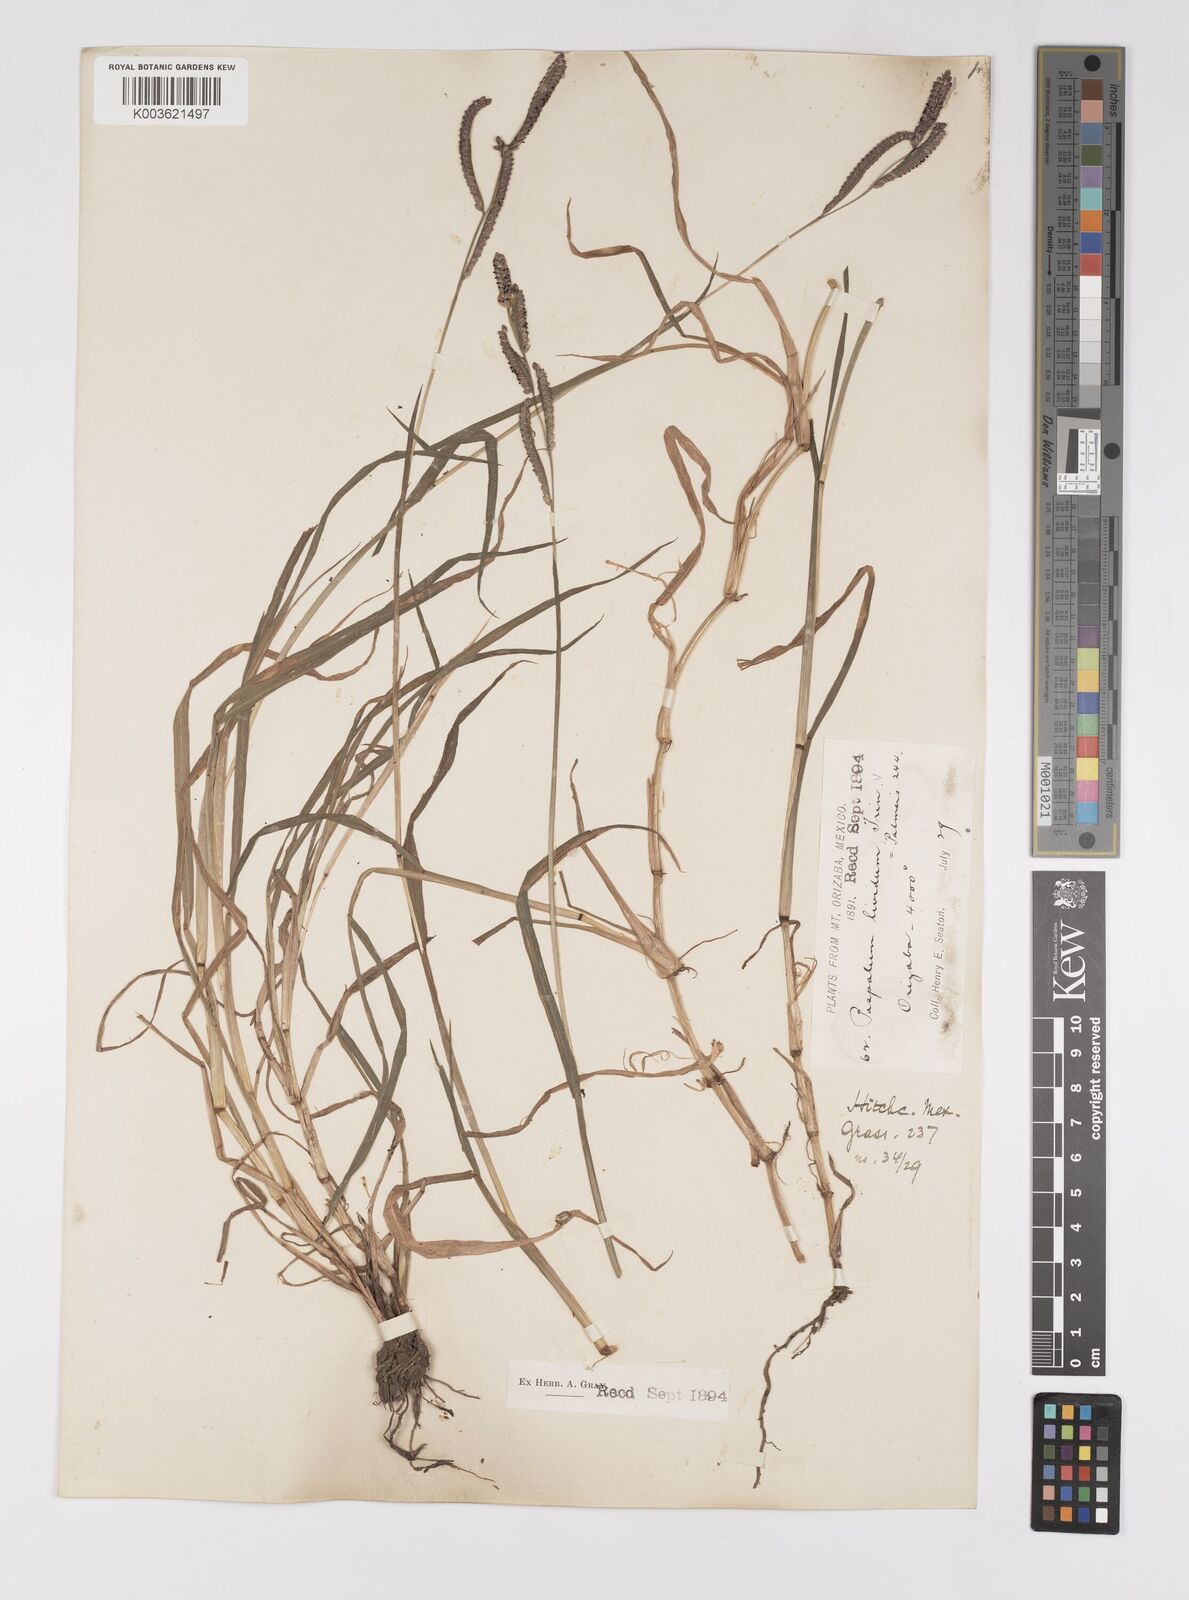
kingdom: Plantae
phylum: Tracheophyta
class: Liliopsida
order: Poales
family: Poaceae
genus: Paspalum
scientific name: Paspalum denticulatum
